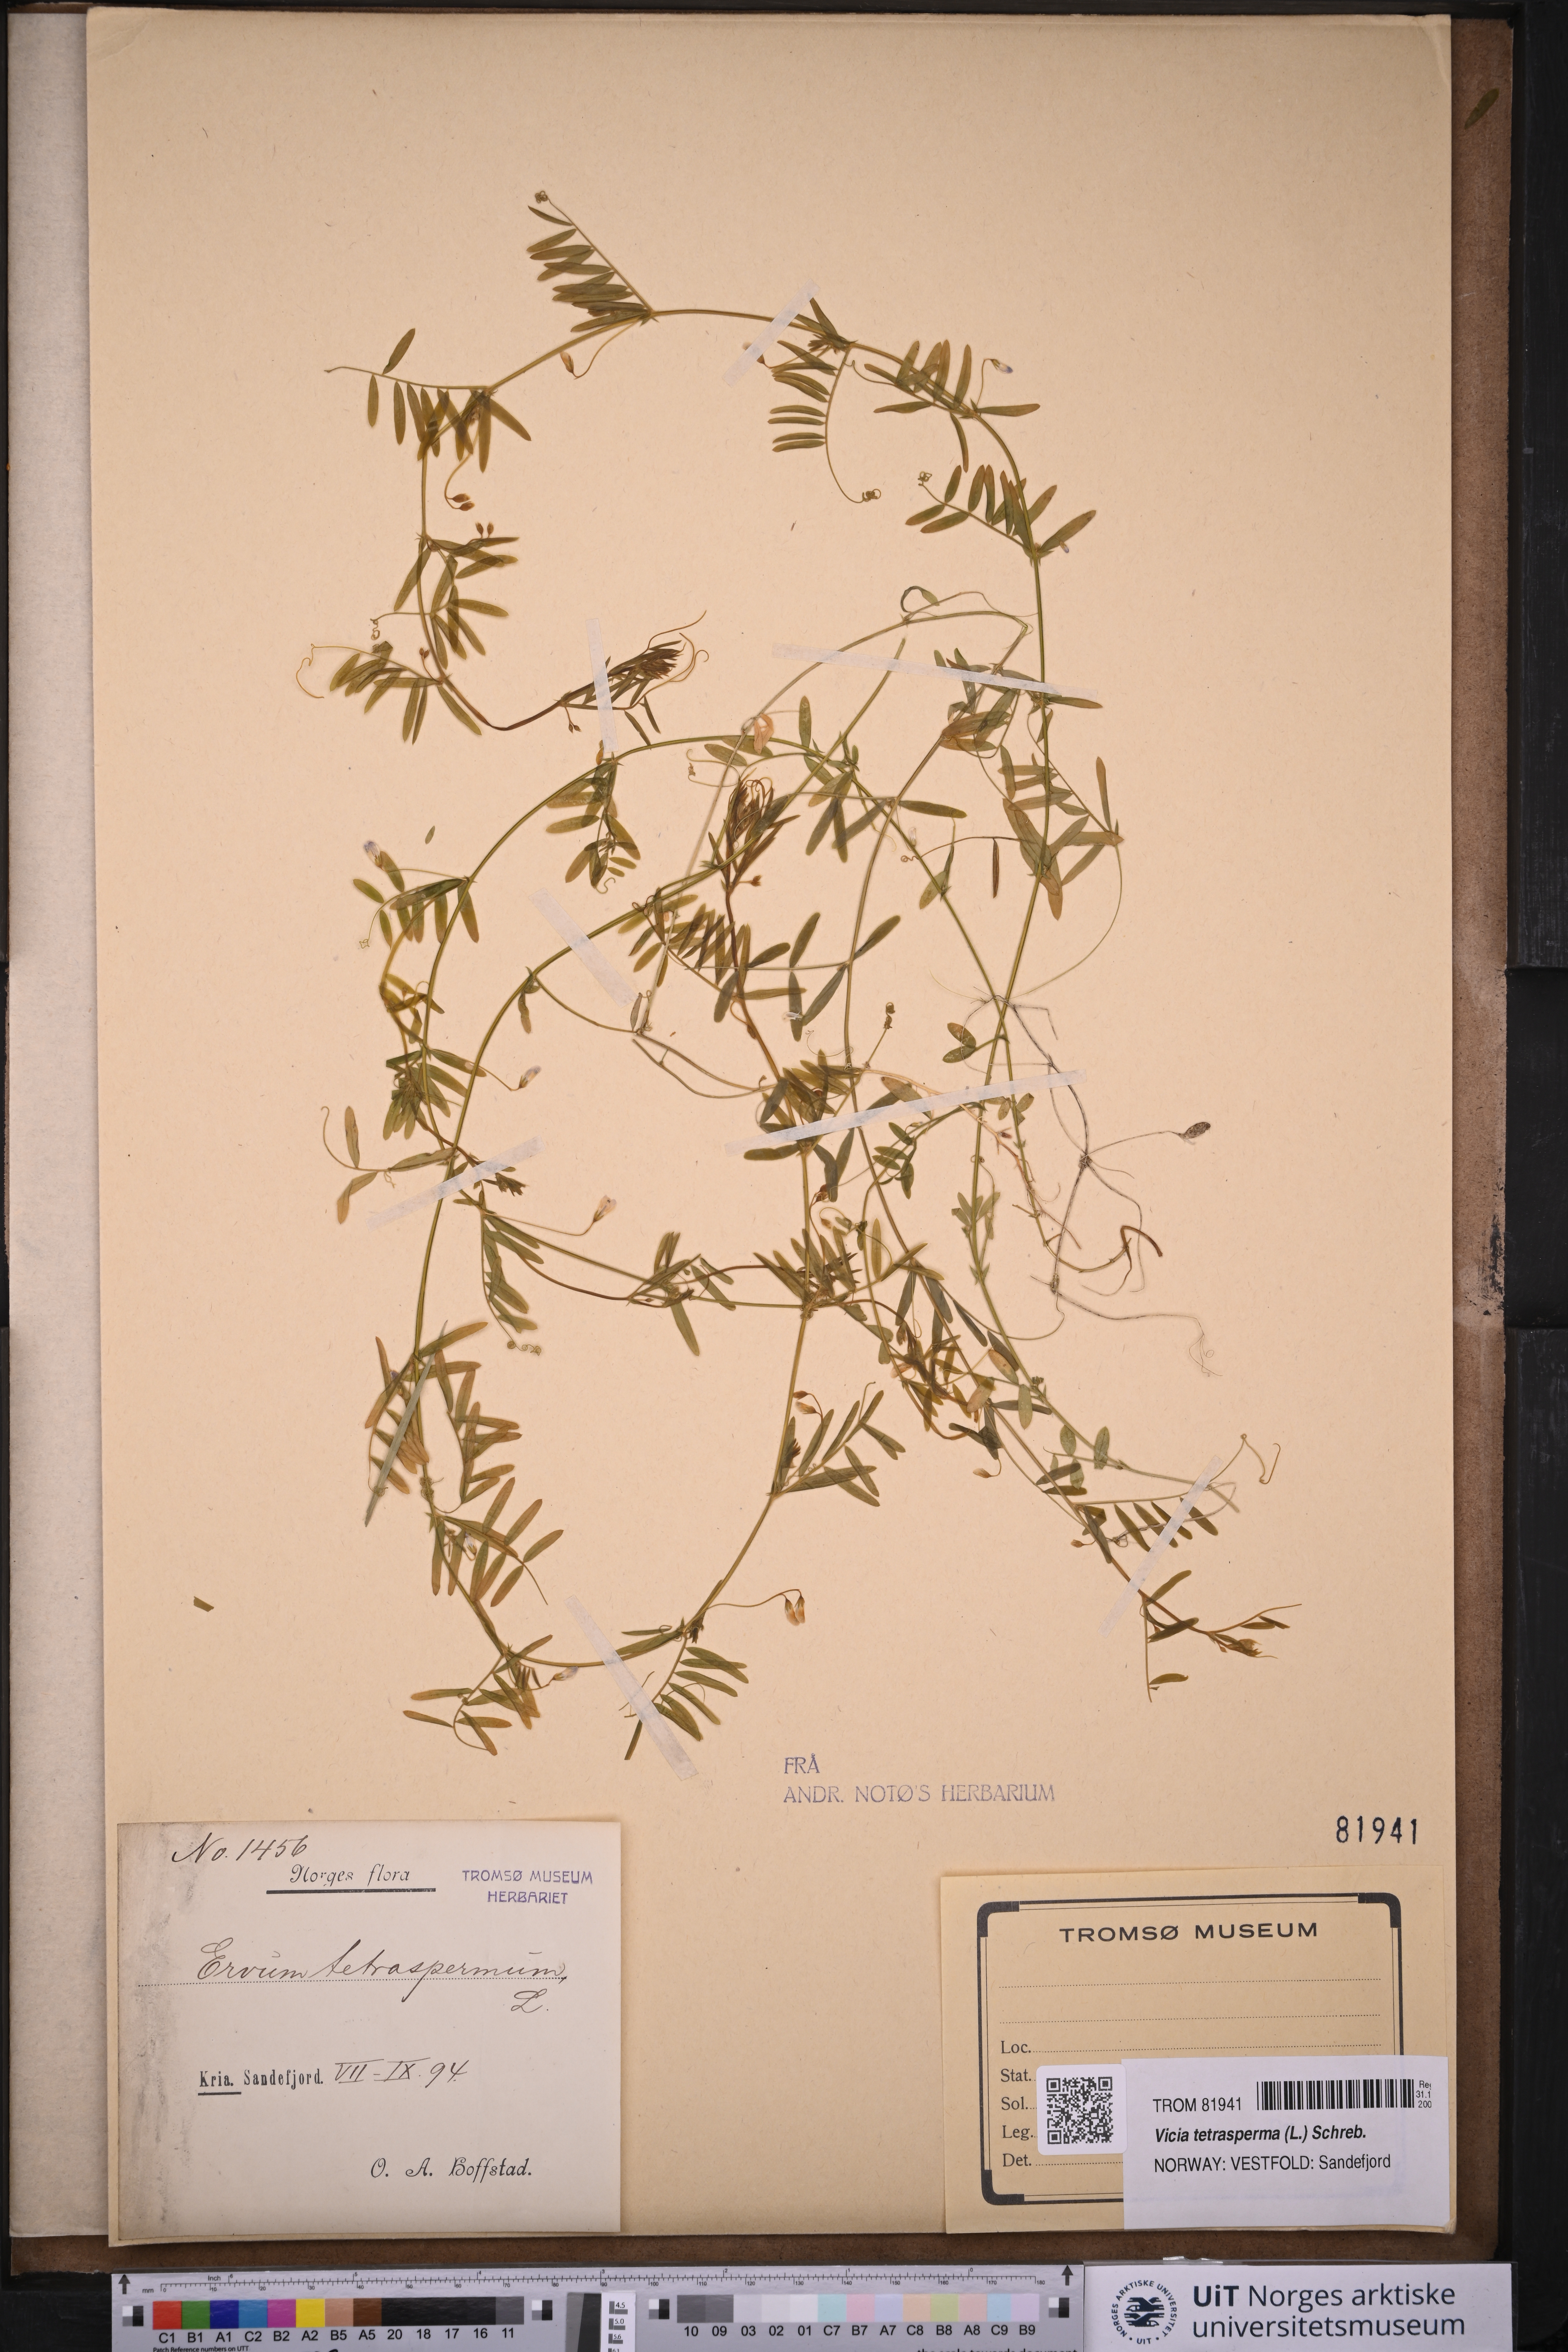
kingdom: Plantae
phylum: Tracheophyta
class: Magnoliopsida
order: Fabales
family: Fabaceae
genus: Vicia
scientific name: Vicia tetrasperma
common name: Smooth tare
